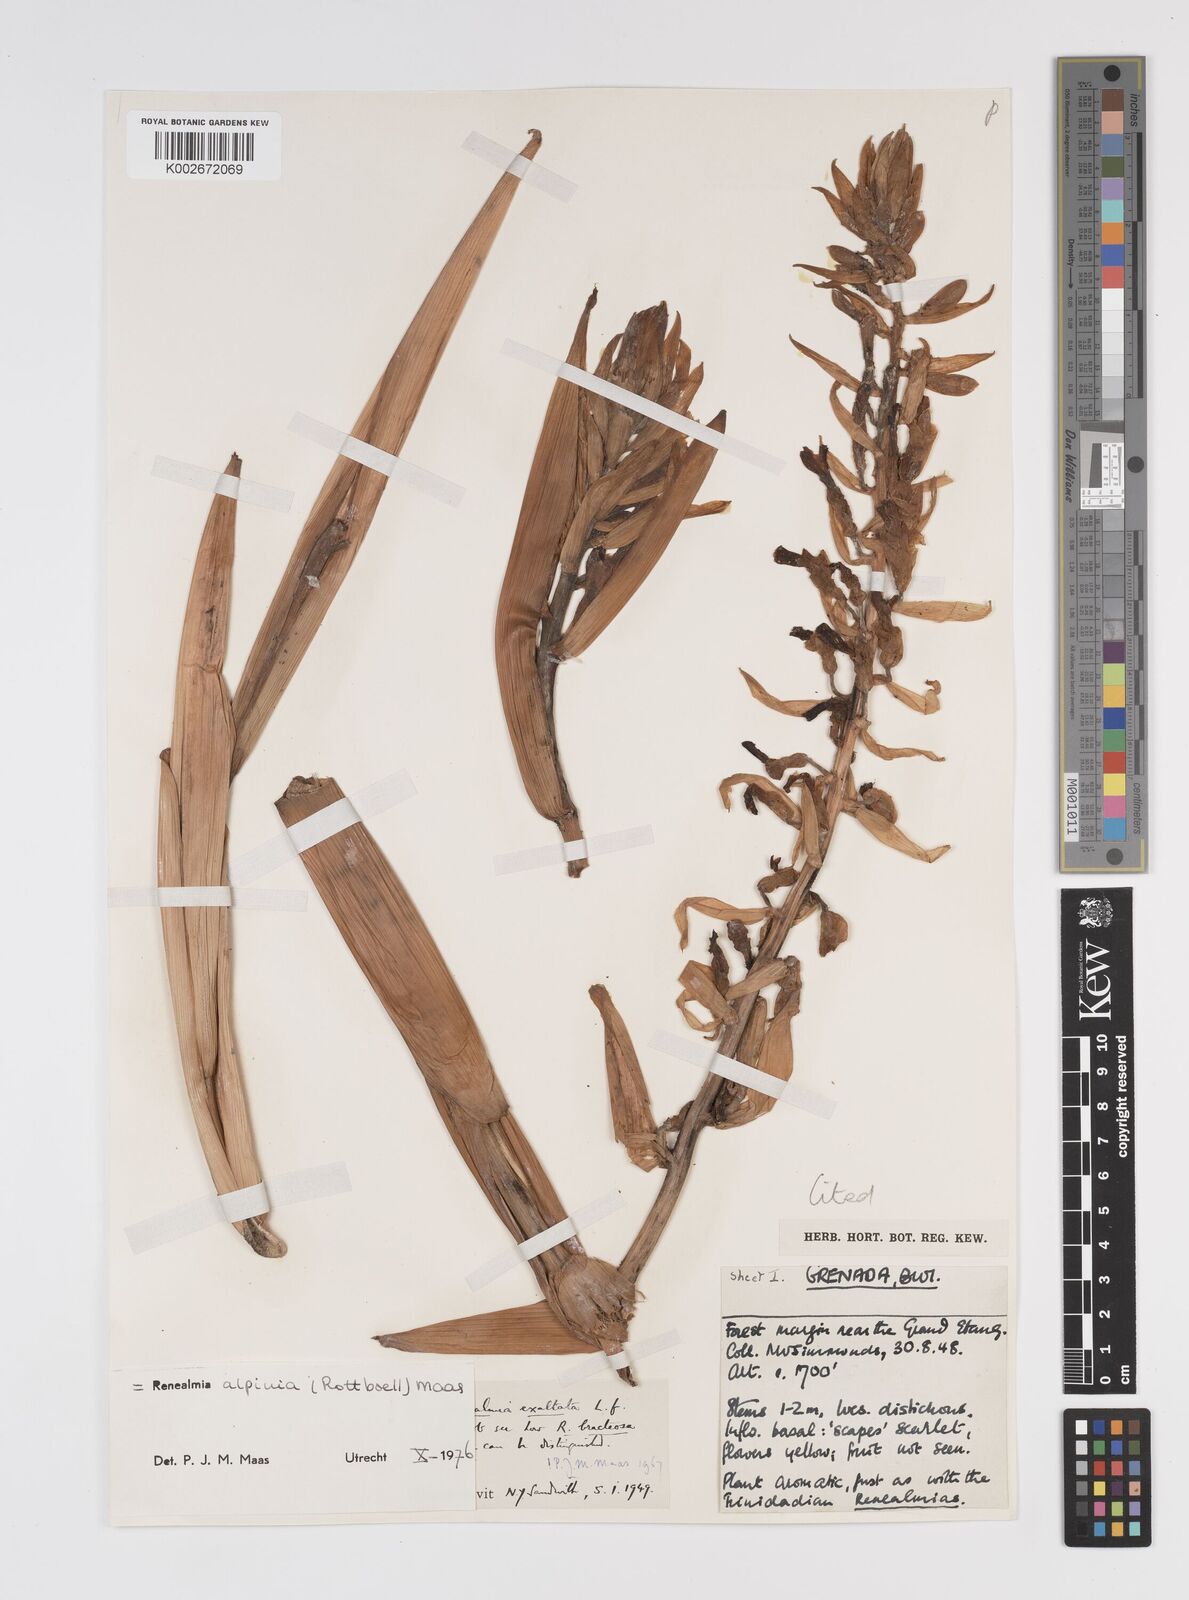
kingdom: Plantae
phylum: Tracheophyta
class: Liliopsida
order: Zingiberales
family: Zingiberaceae
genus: Renealmia
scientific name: Renealmia alpinia
